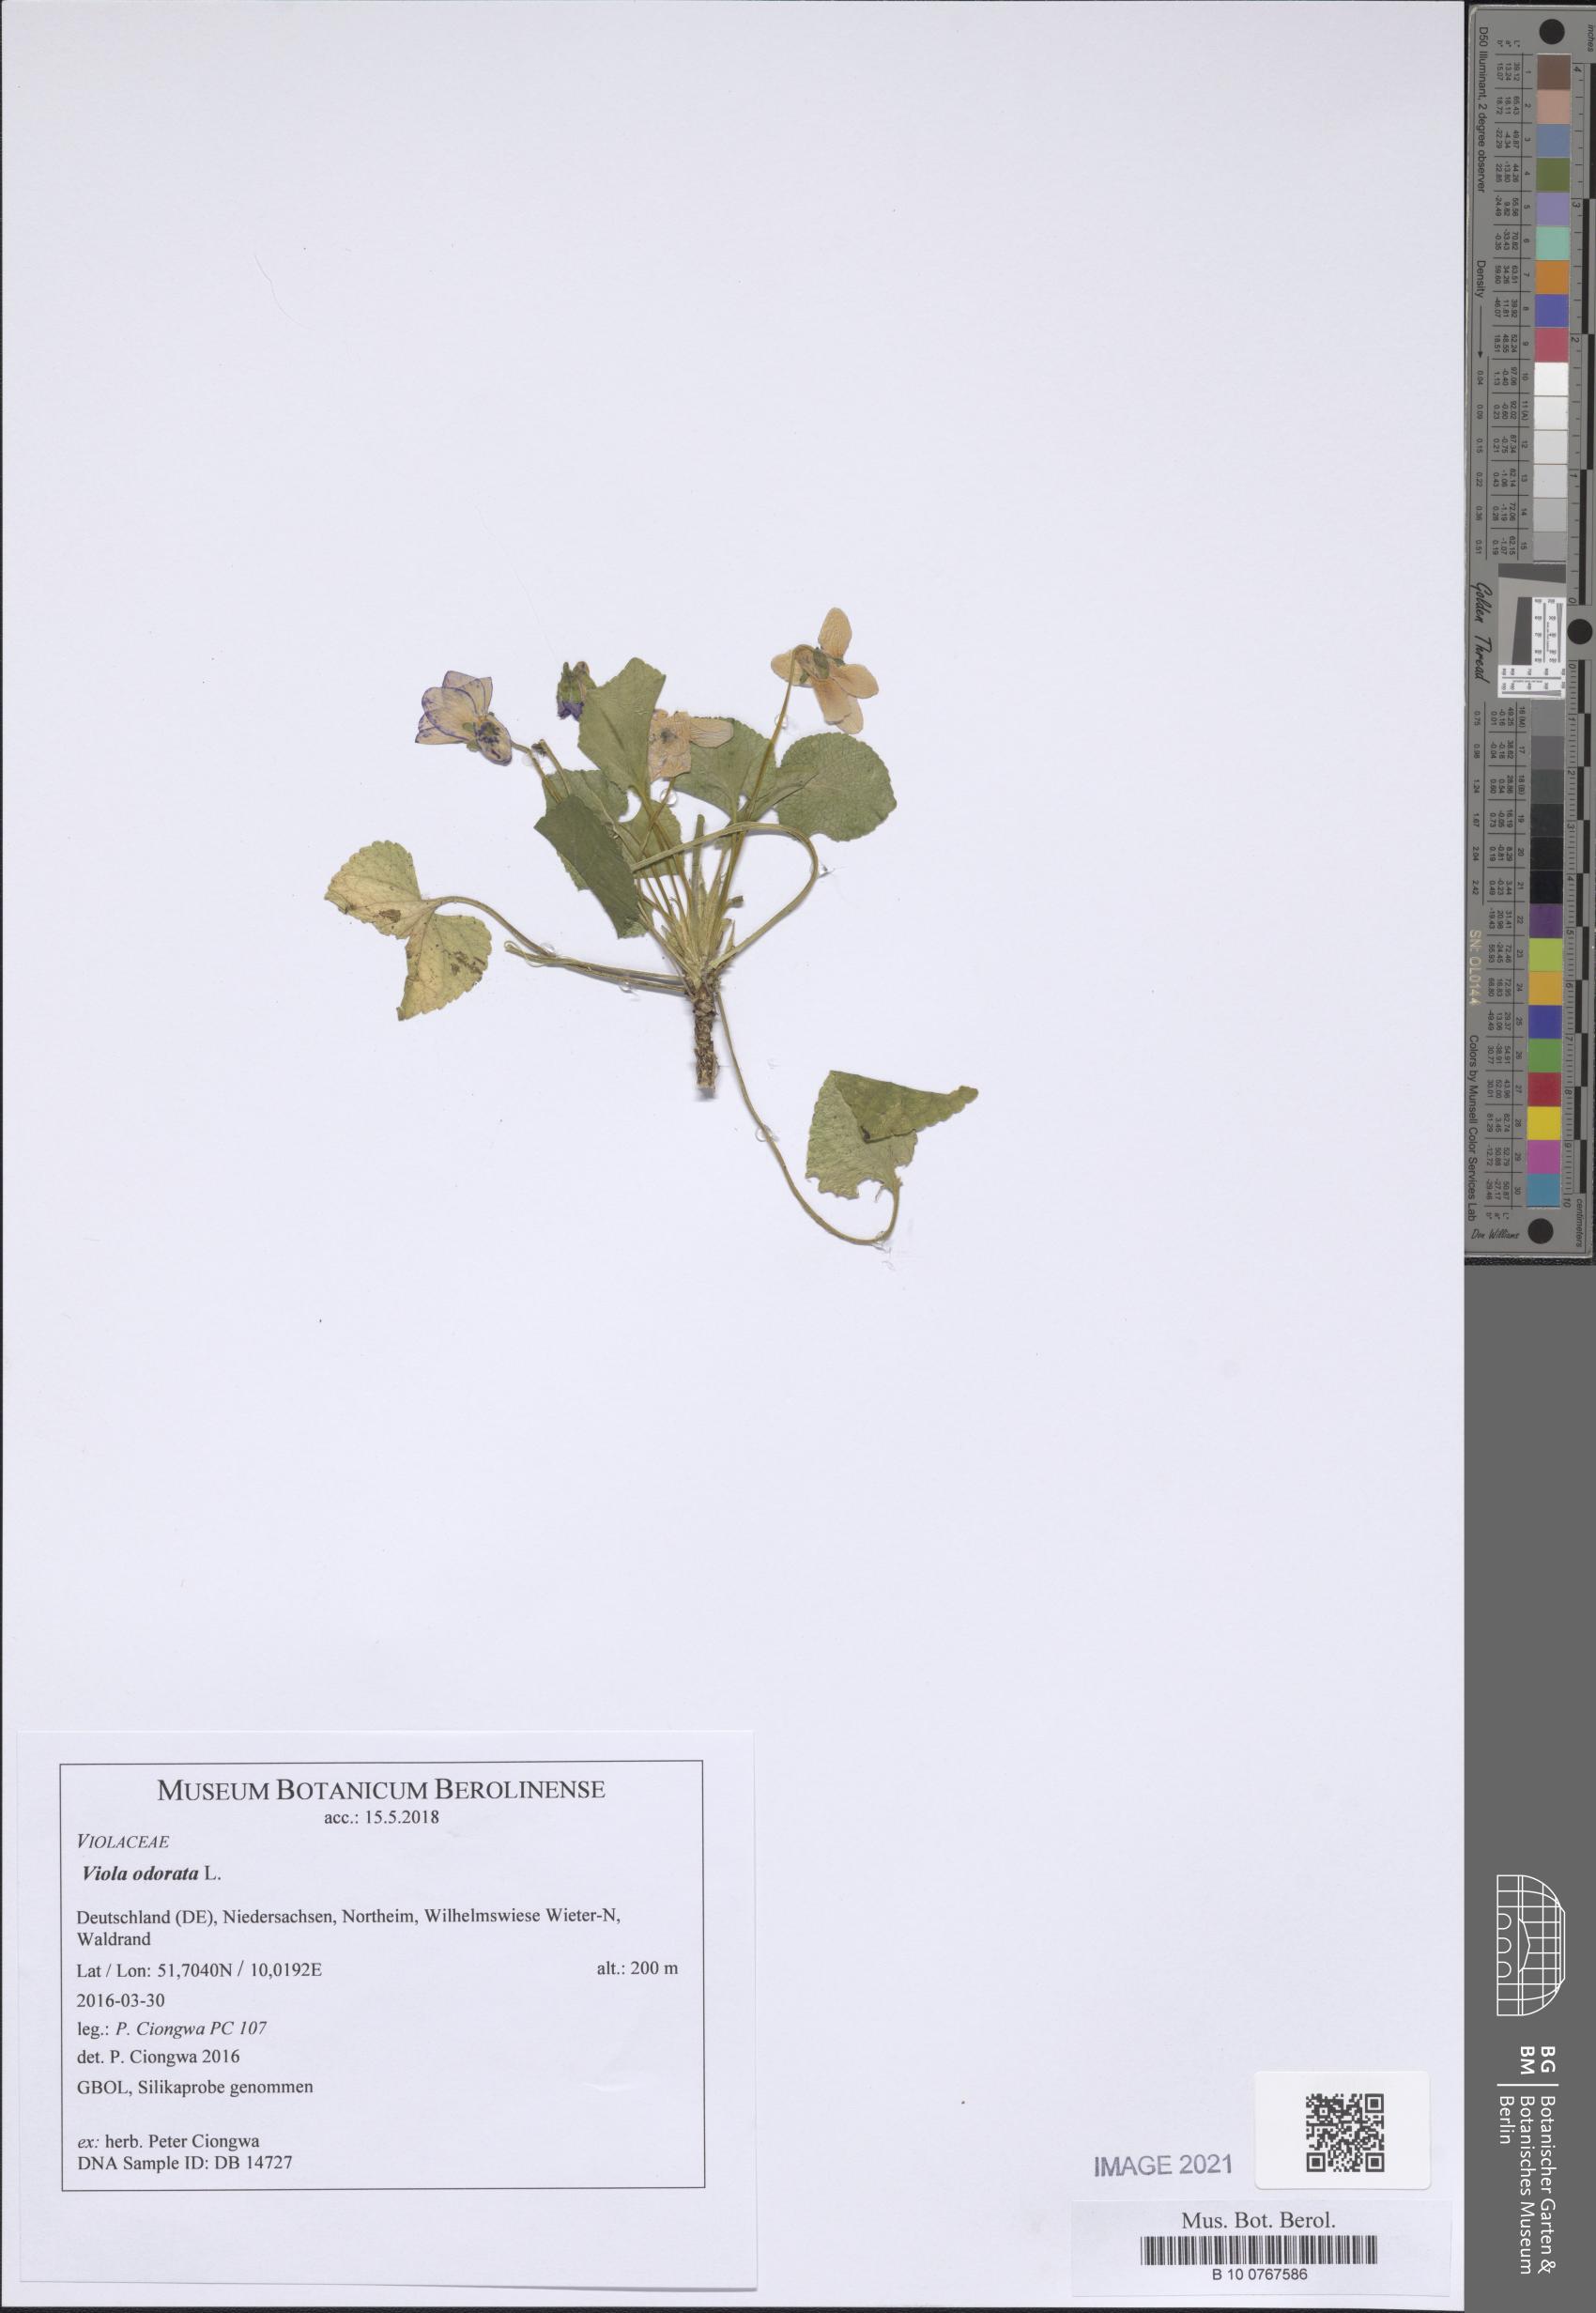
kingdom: Plantae
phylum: Tracheophyta
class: Magnoliopsida
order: Malpighiales
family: Violaceae
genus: Viola
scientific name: Viola odorata
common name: Sweet violet
